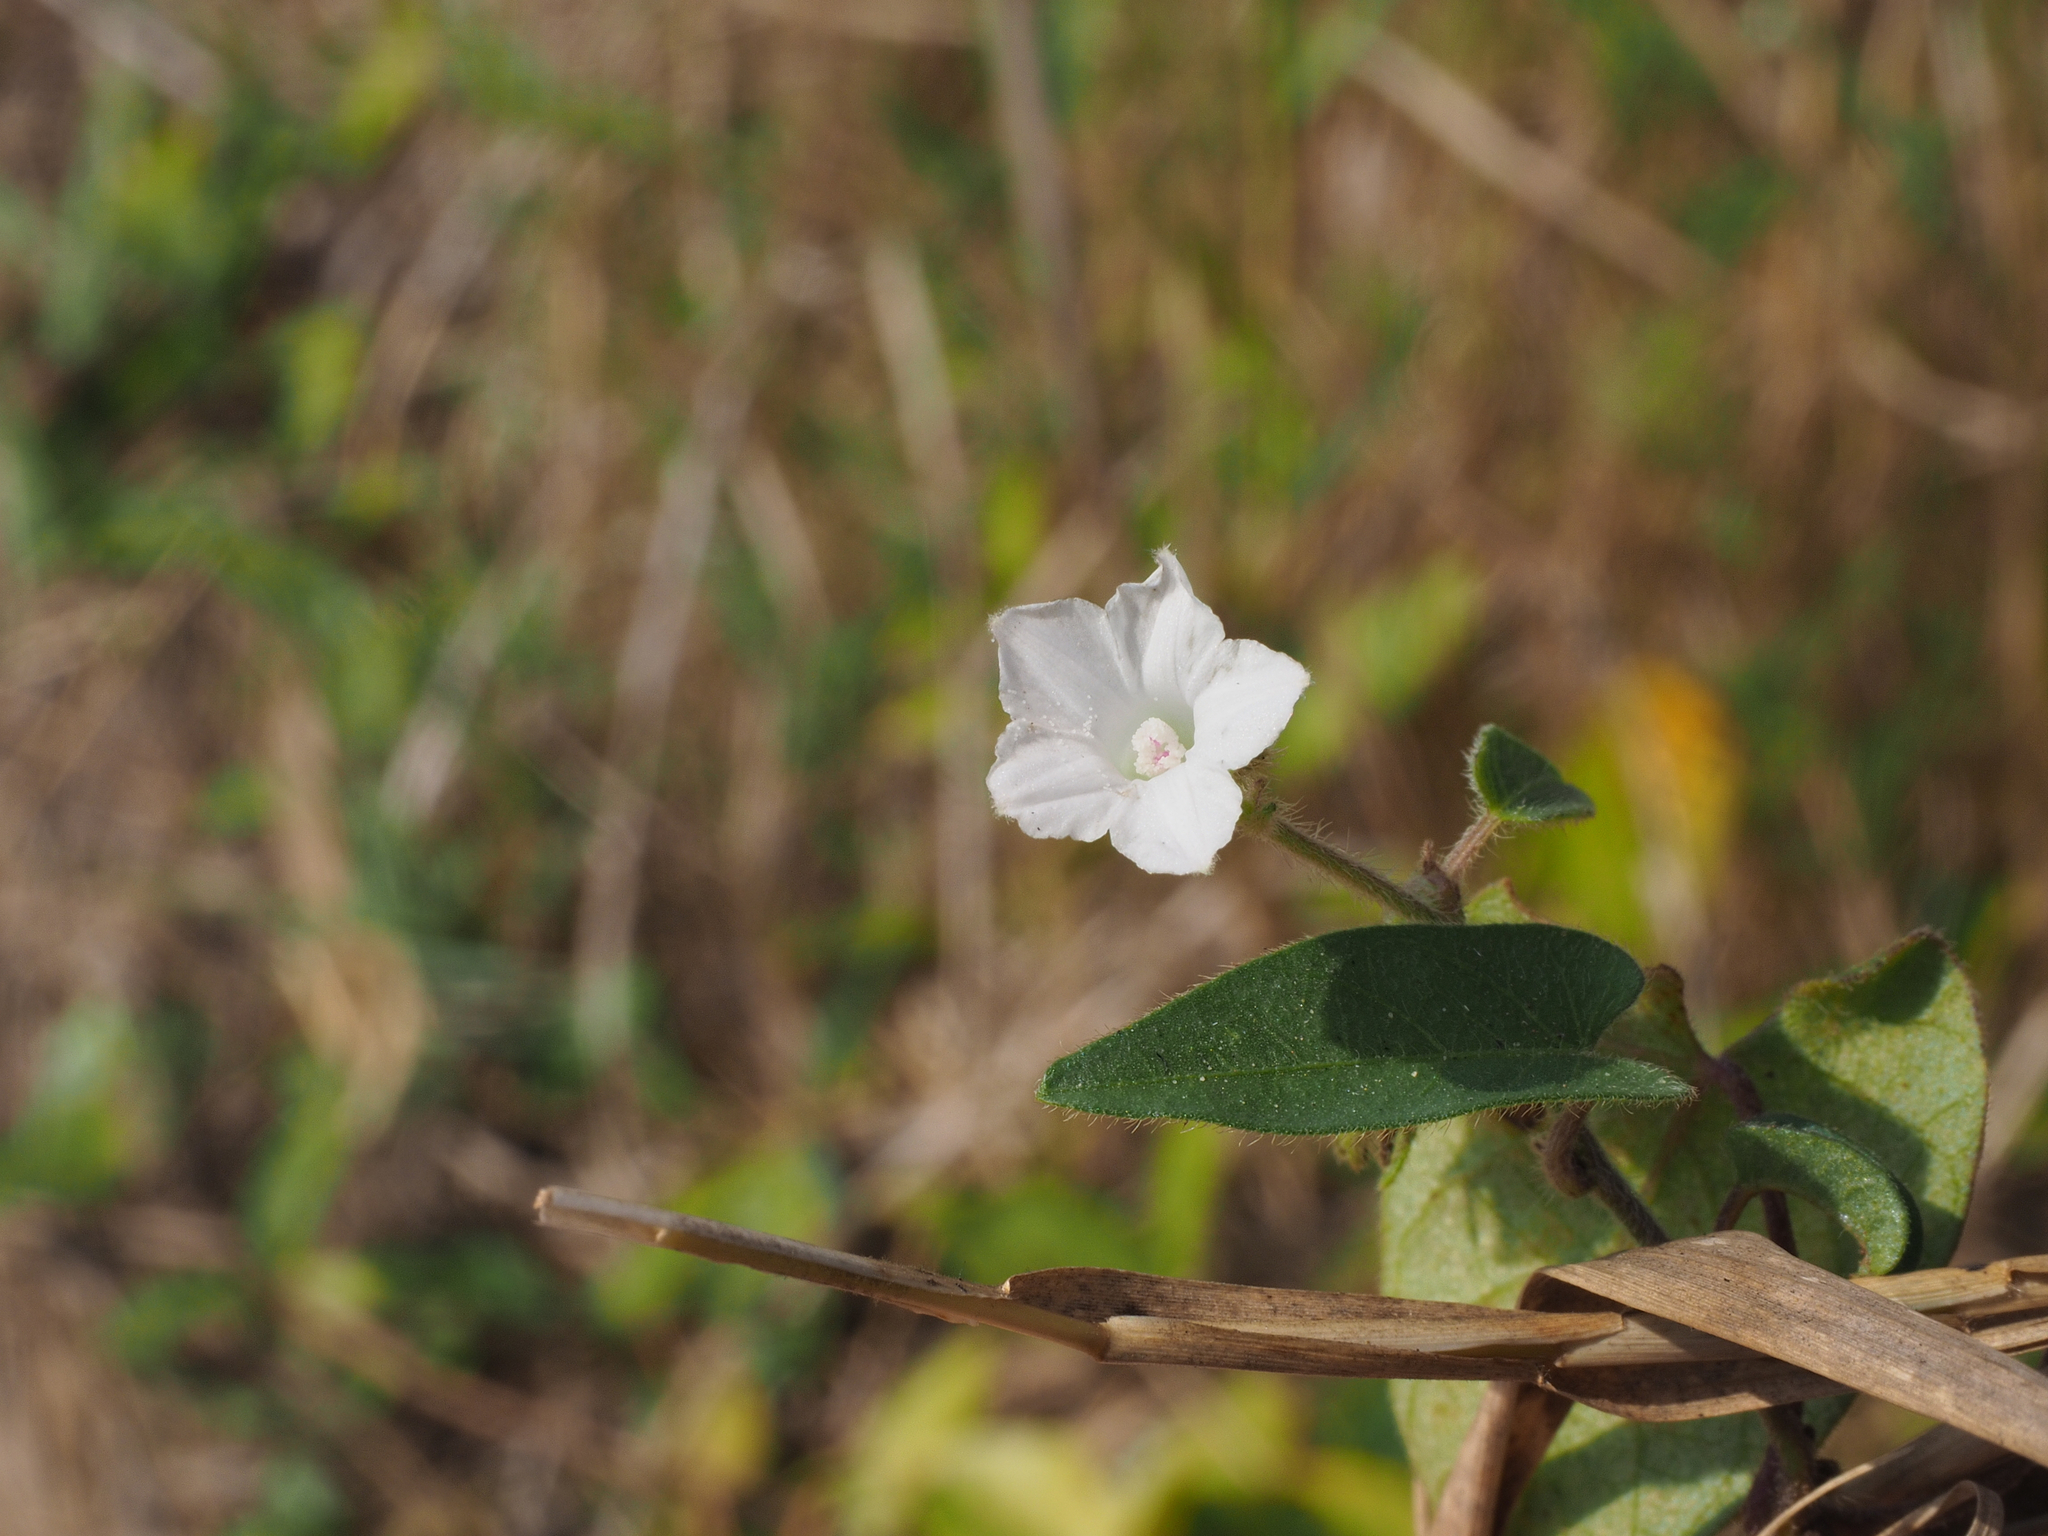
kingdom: Plantae
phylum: Tracheophyta
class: Magnoliopsida
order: Solanales
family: Convolvulaceae
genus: Ipomoea
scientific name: Ipomoea eriocarpa
